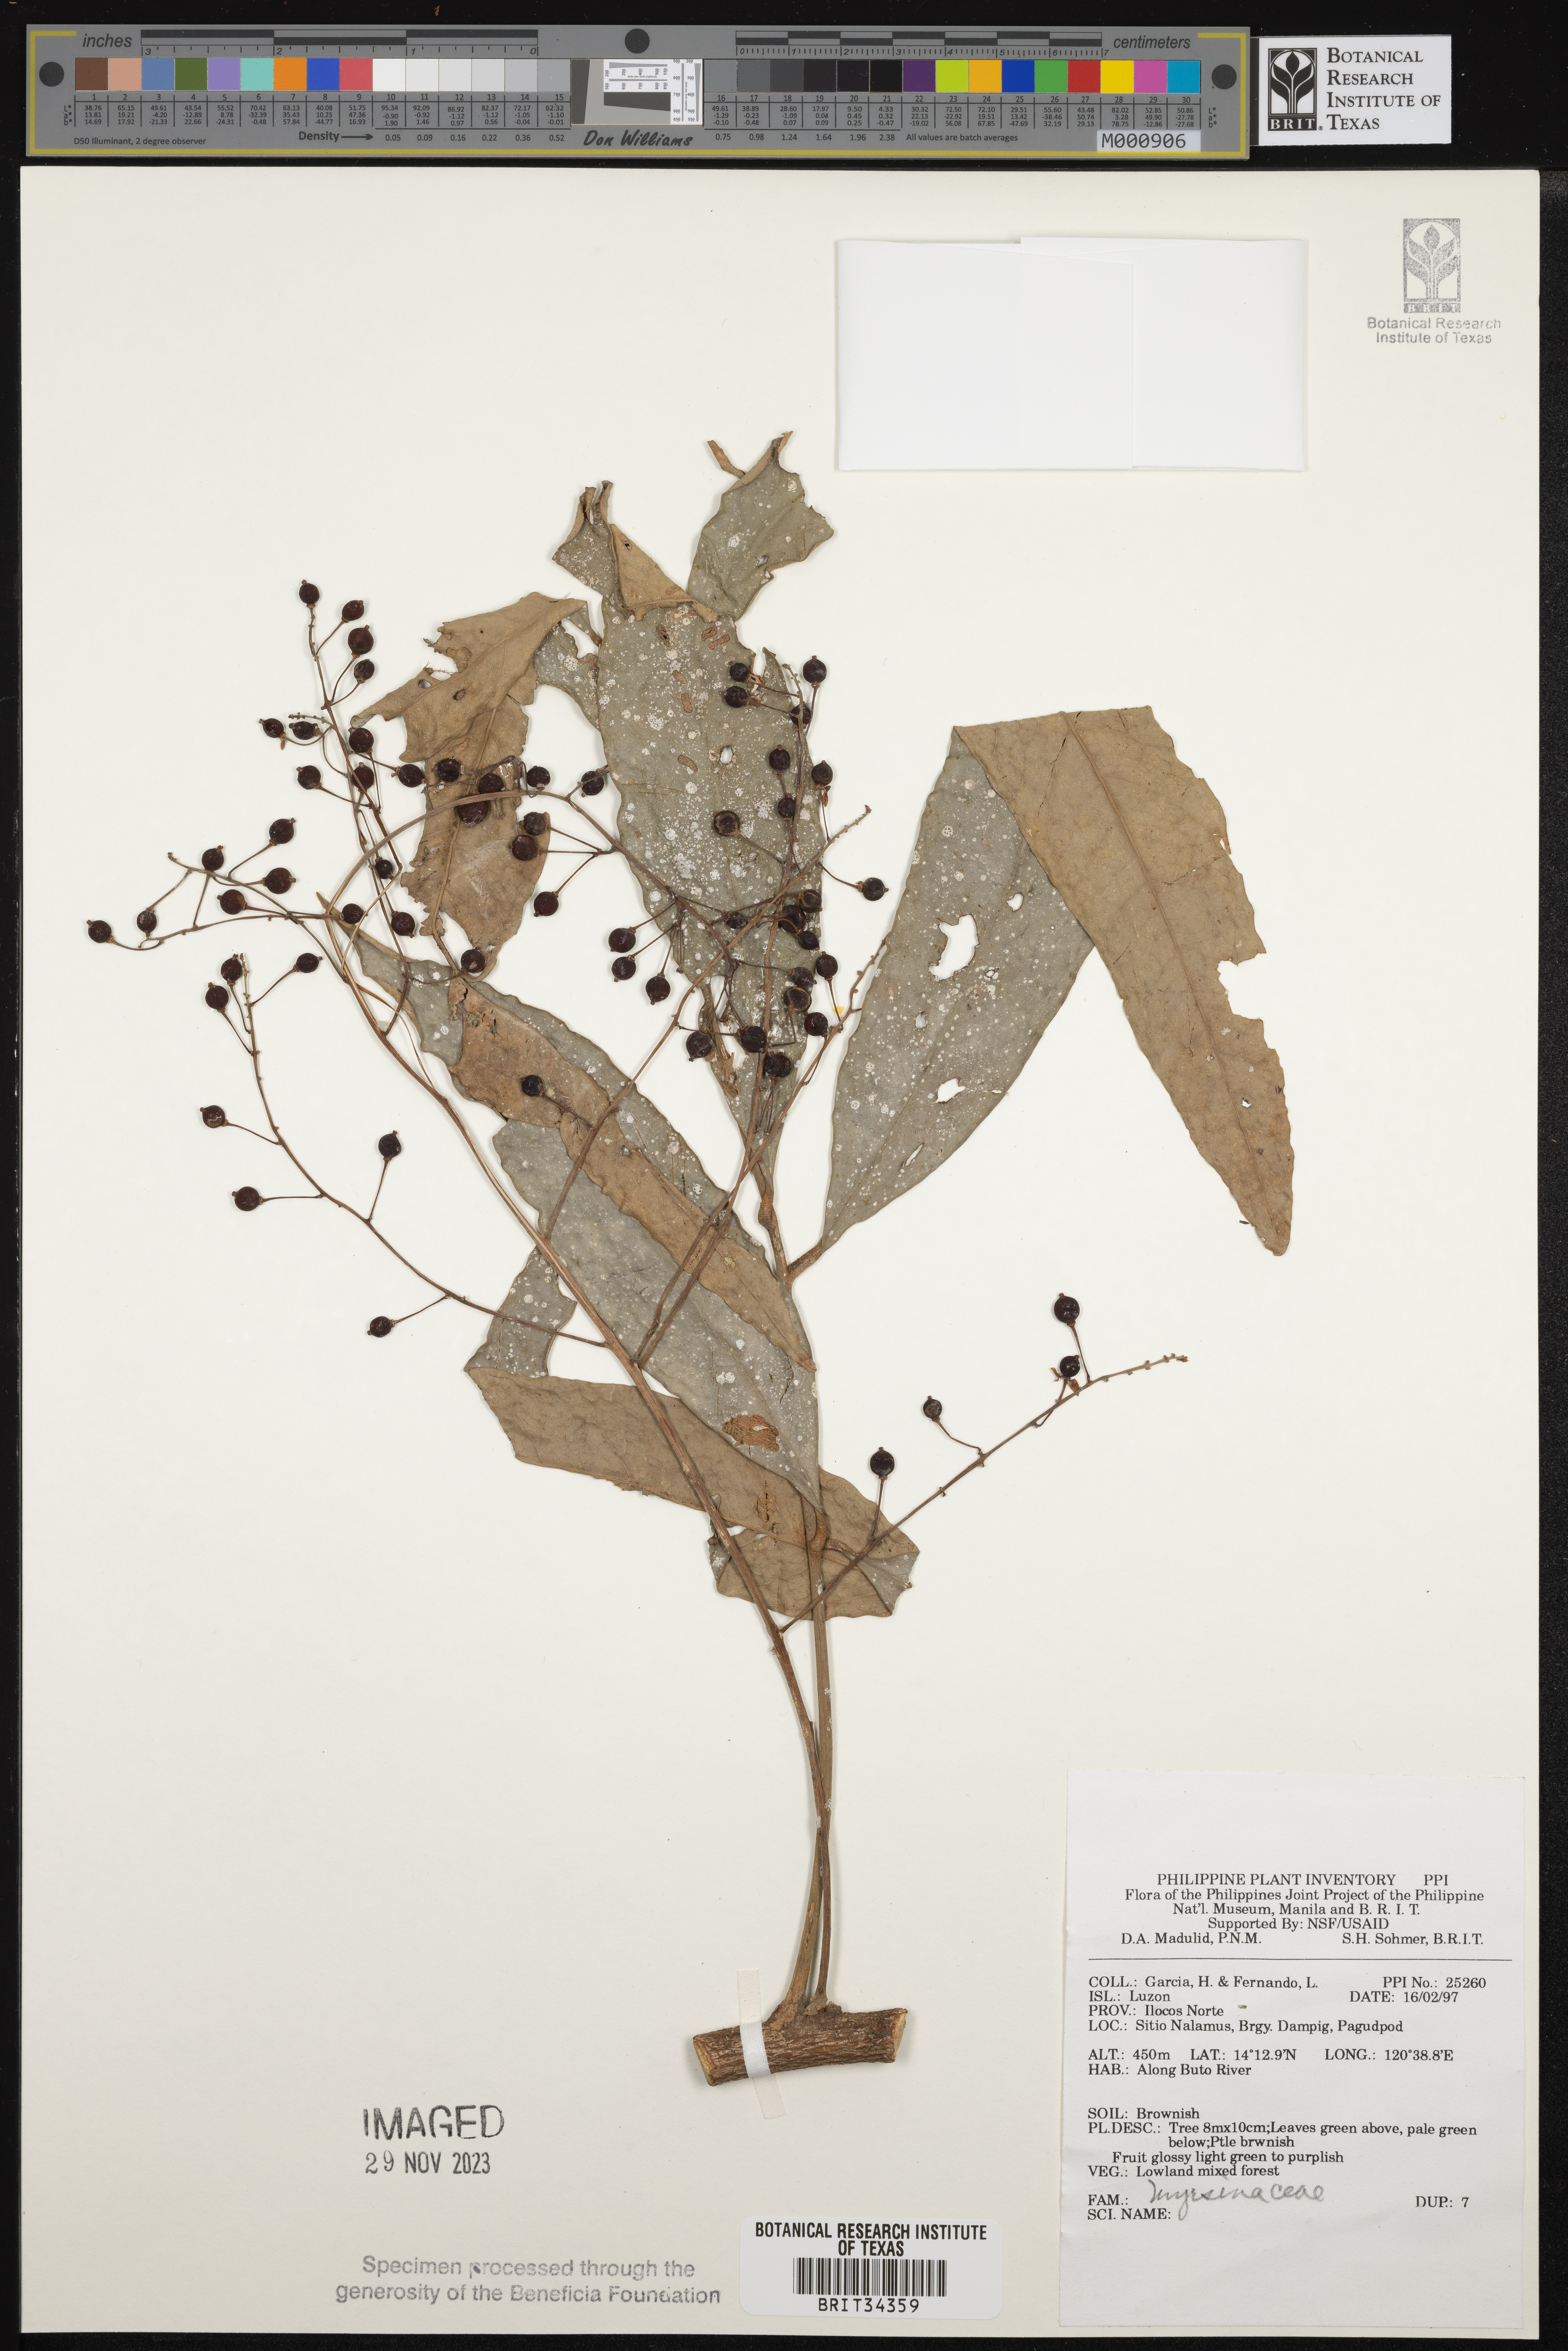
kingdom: Plantae
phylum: Tracheophyta
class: Magnoliopsida
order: Ericales
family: Primulaceae
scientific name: Primulaceae
